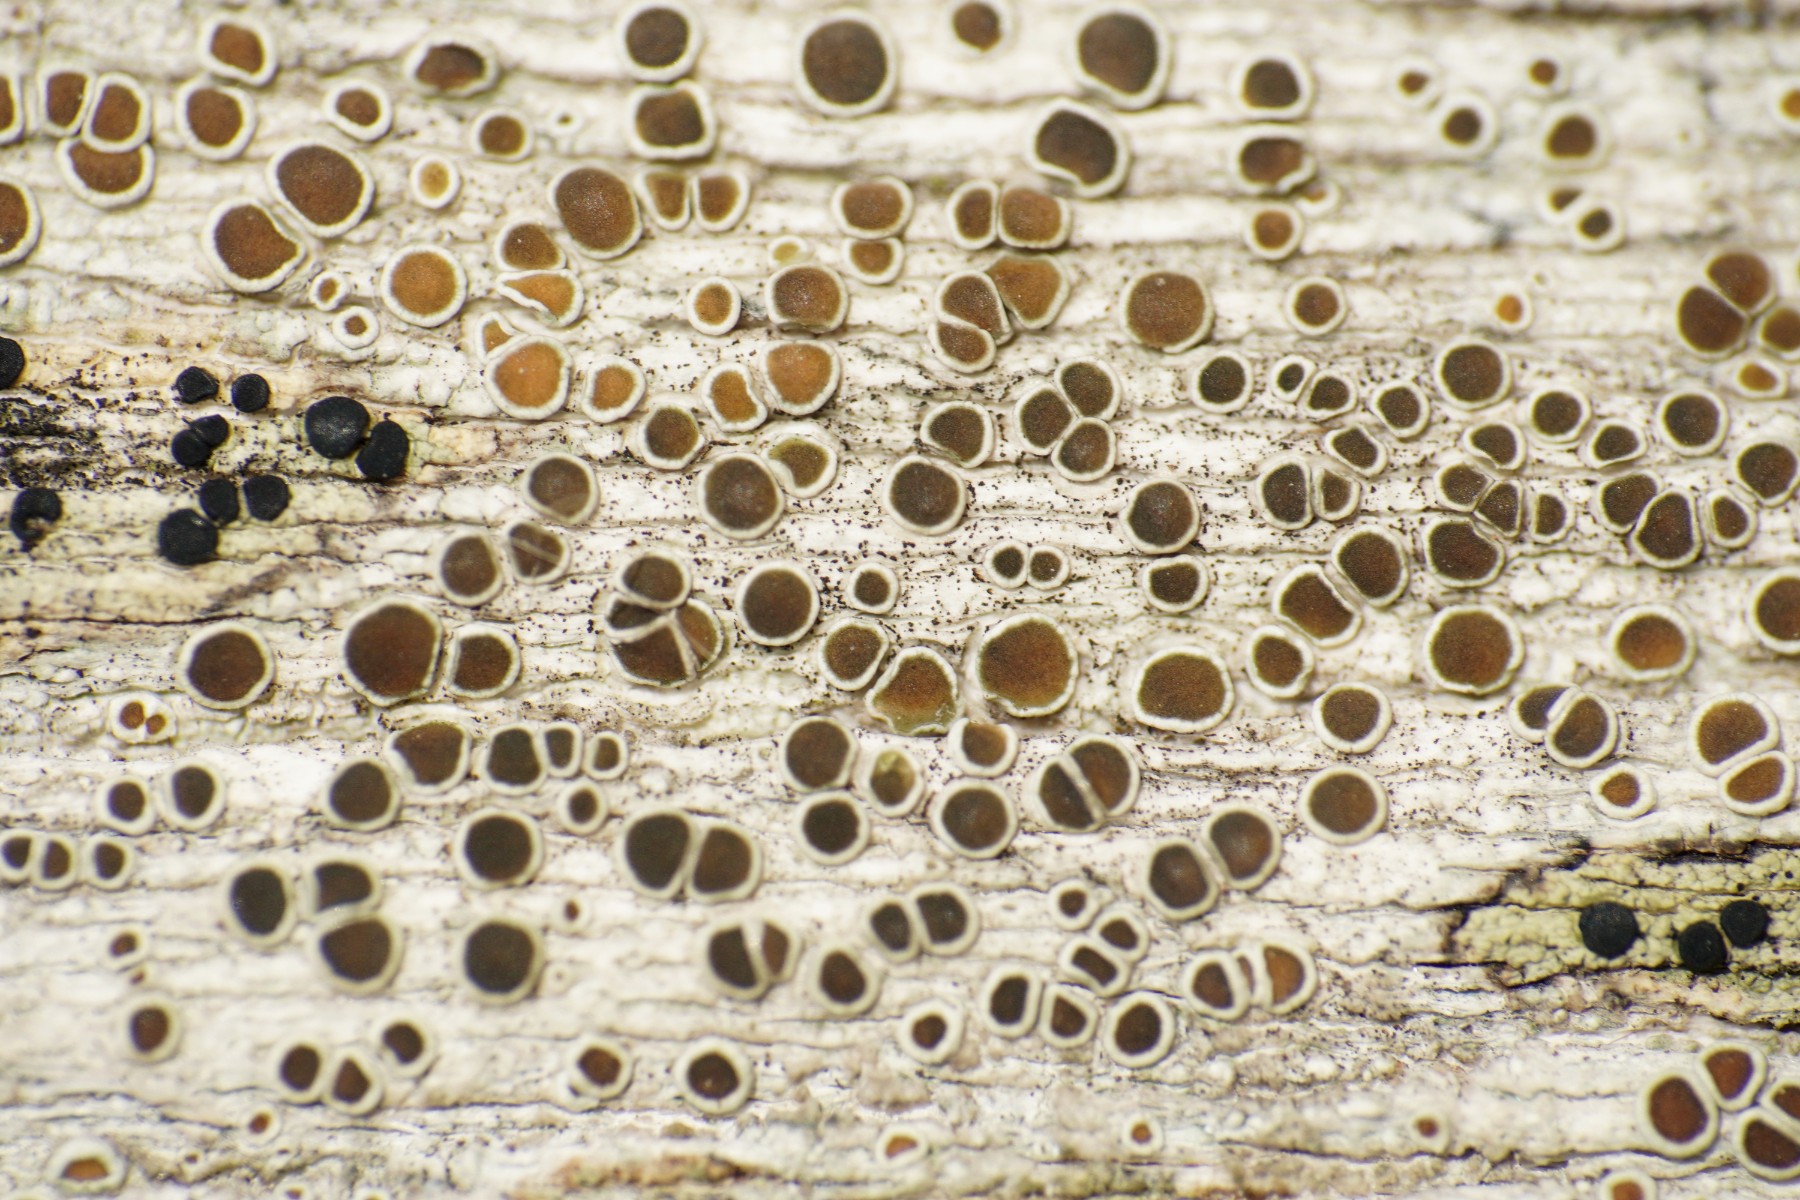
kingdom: Fungi
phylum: Ascomycota
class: Lecanoromycetes
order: Lecanorales
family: Lecanoraceae
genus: Lecanora
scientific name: Lecanora pulicaris
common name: almindelig kantskivelav
